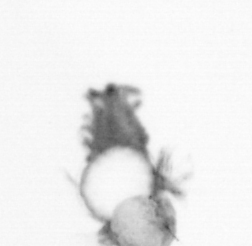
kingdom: Animalia
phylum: Annelida
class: Polychaeta
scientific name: Polychaeta
